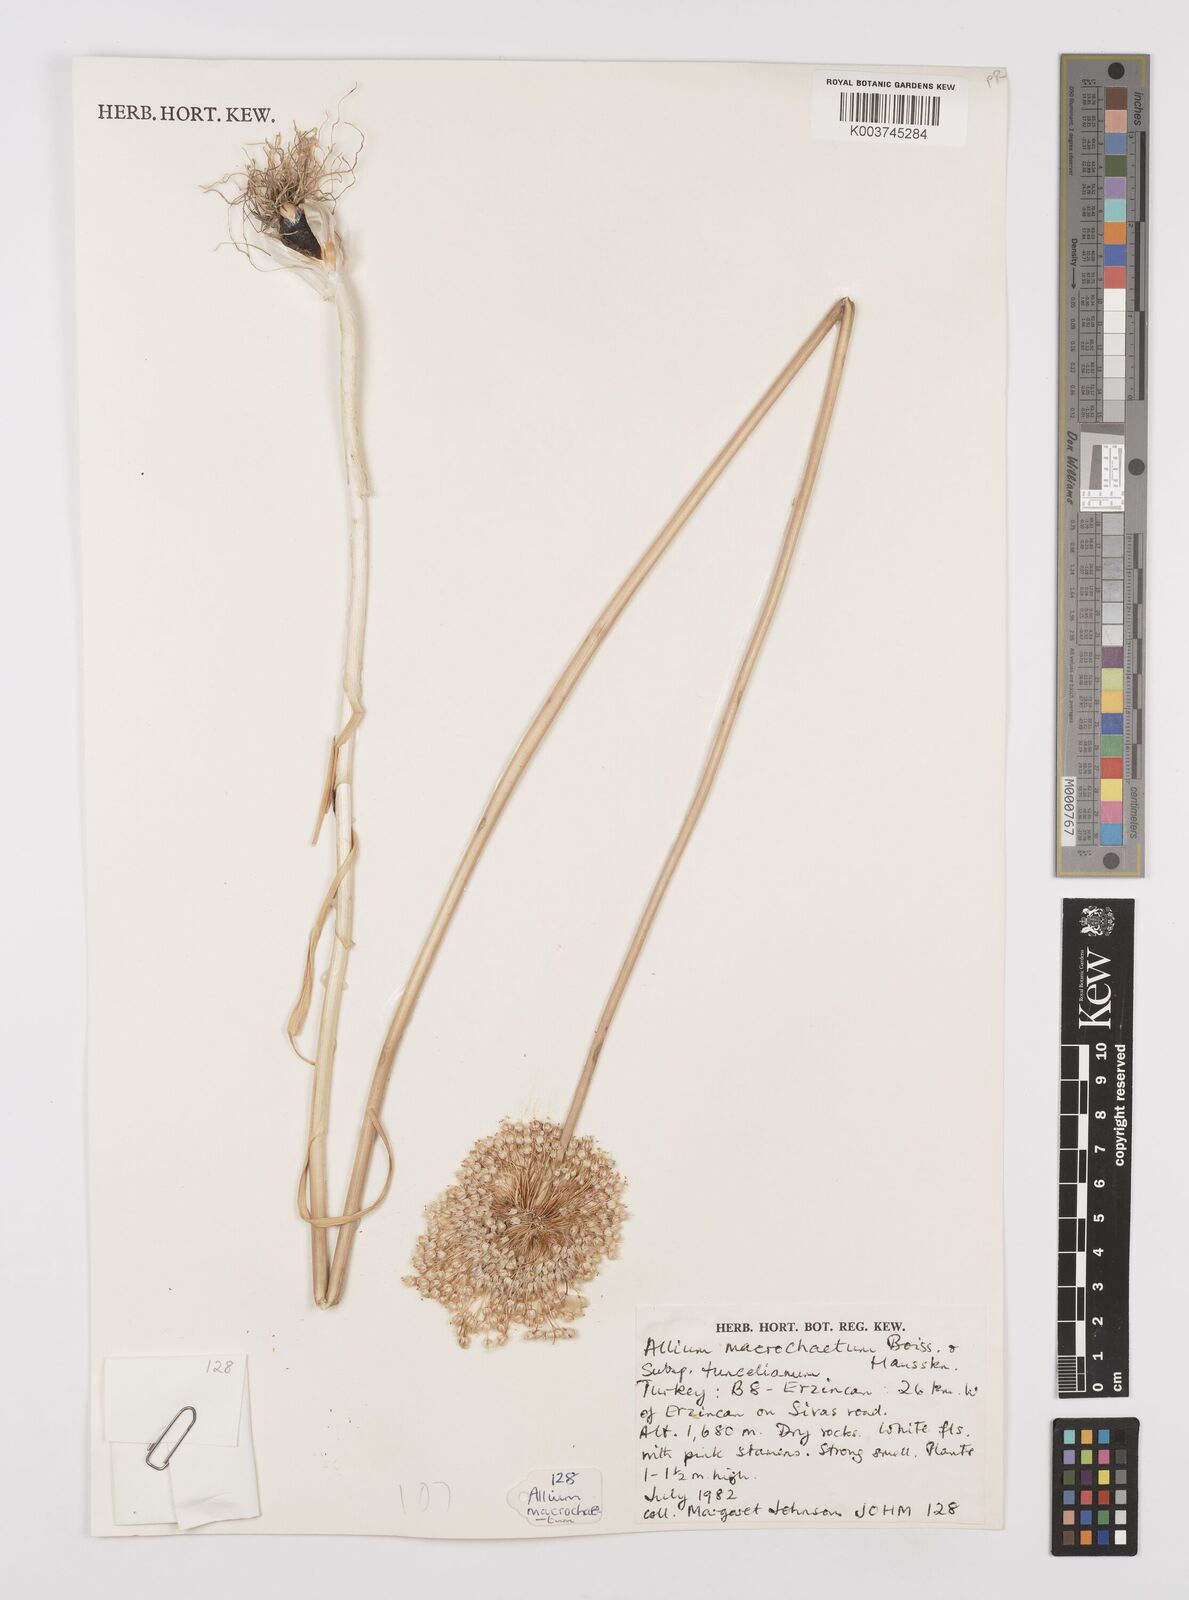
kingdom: Plantae
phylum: Tracheophyta
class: Liliopsida
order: Asparagales
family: Amaryllidaceae
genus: Allium
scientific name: Allium tuncelianum
